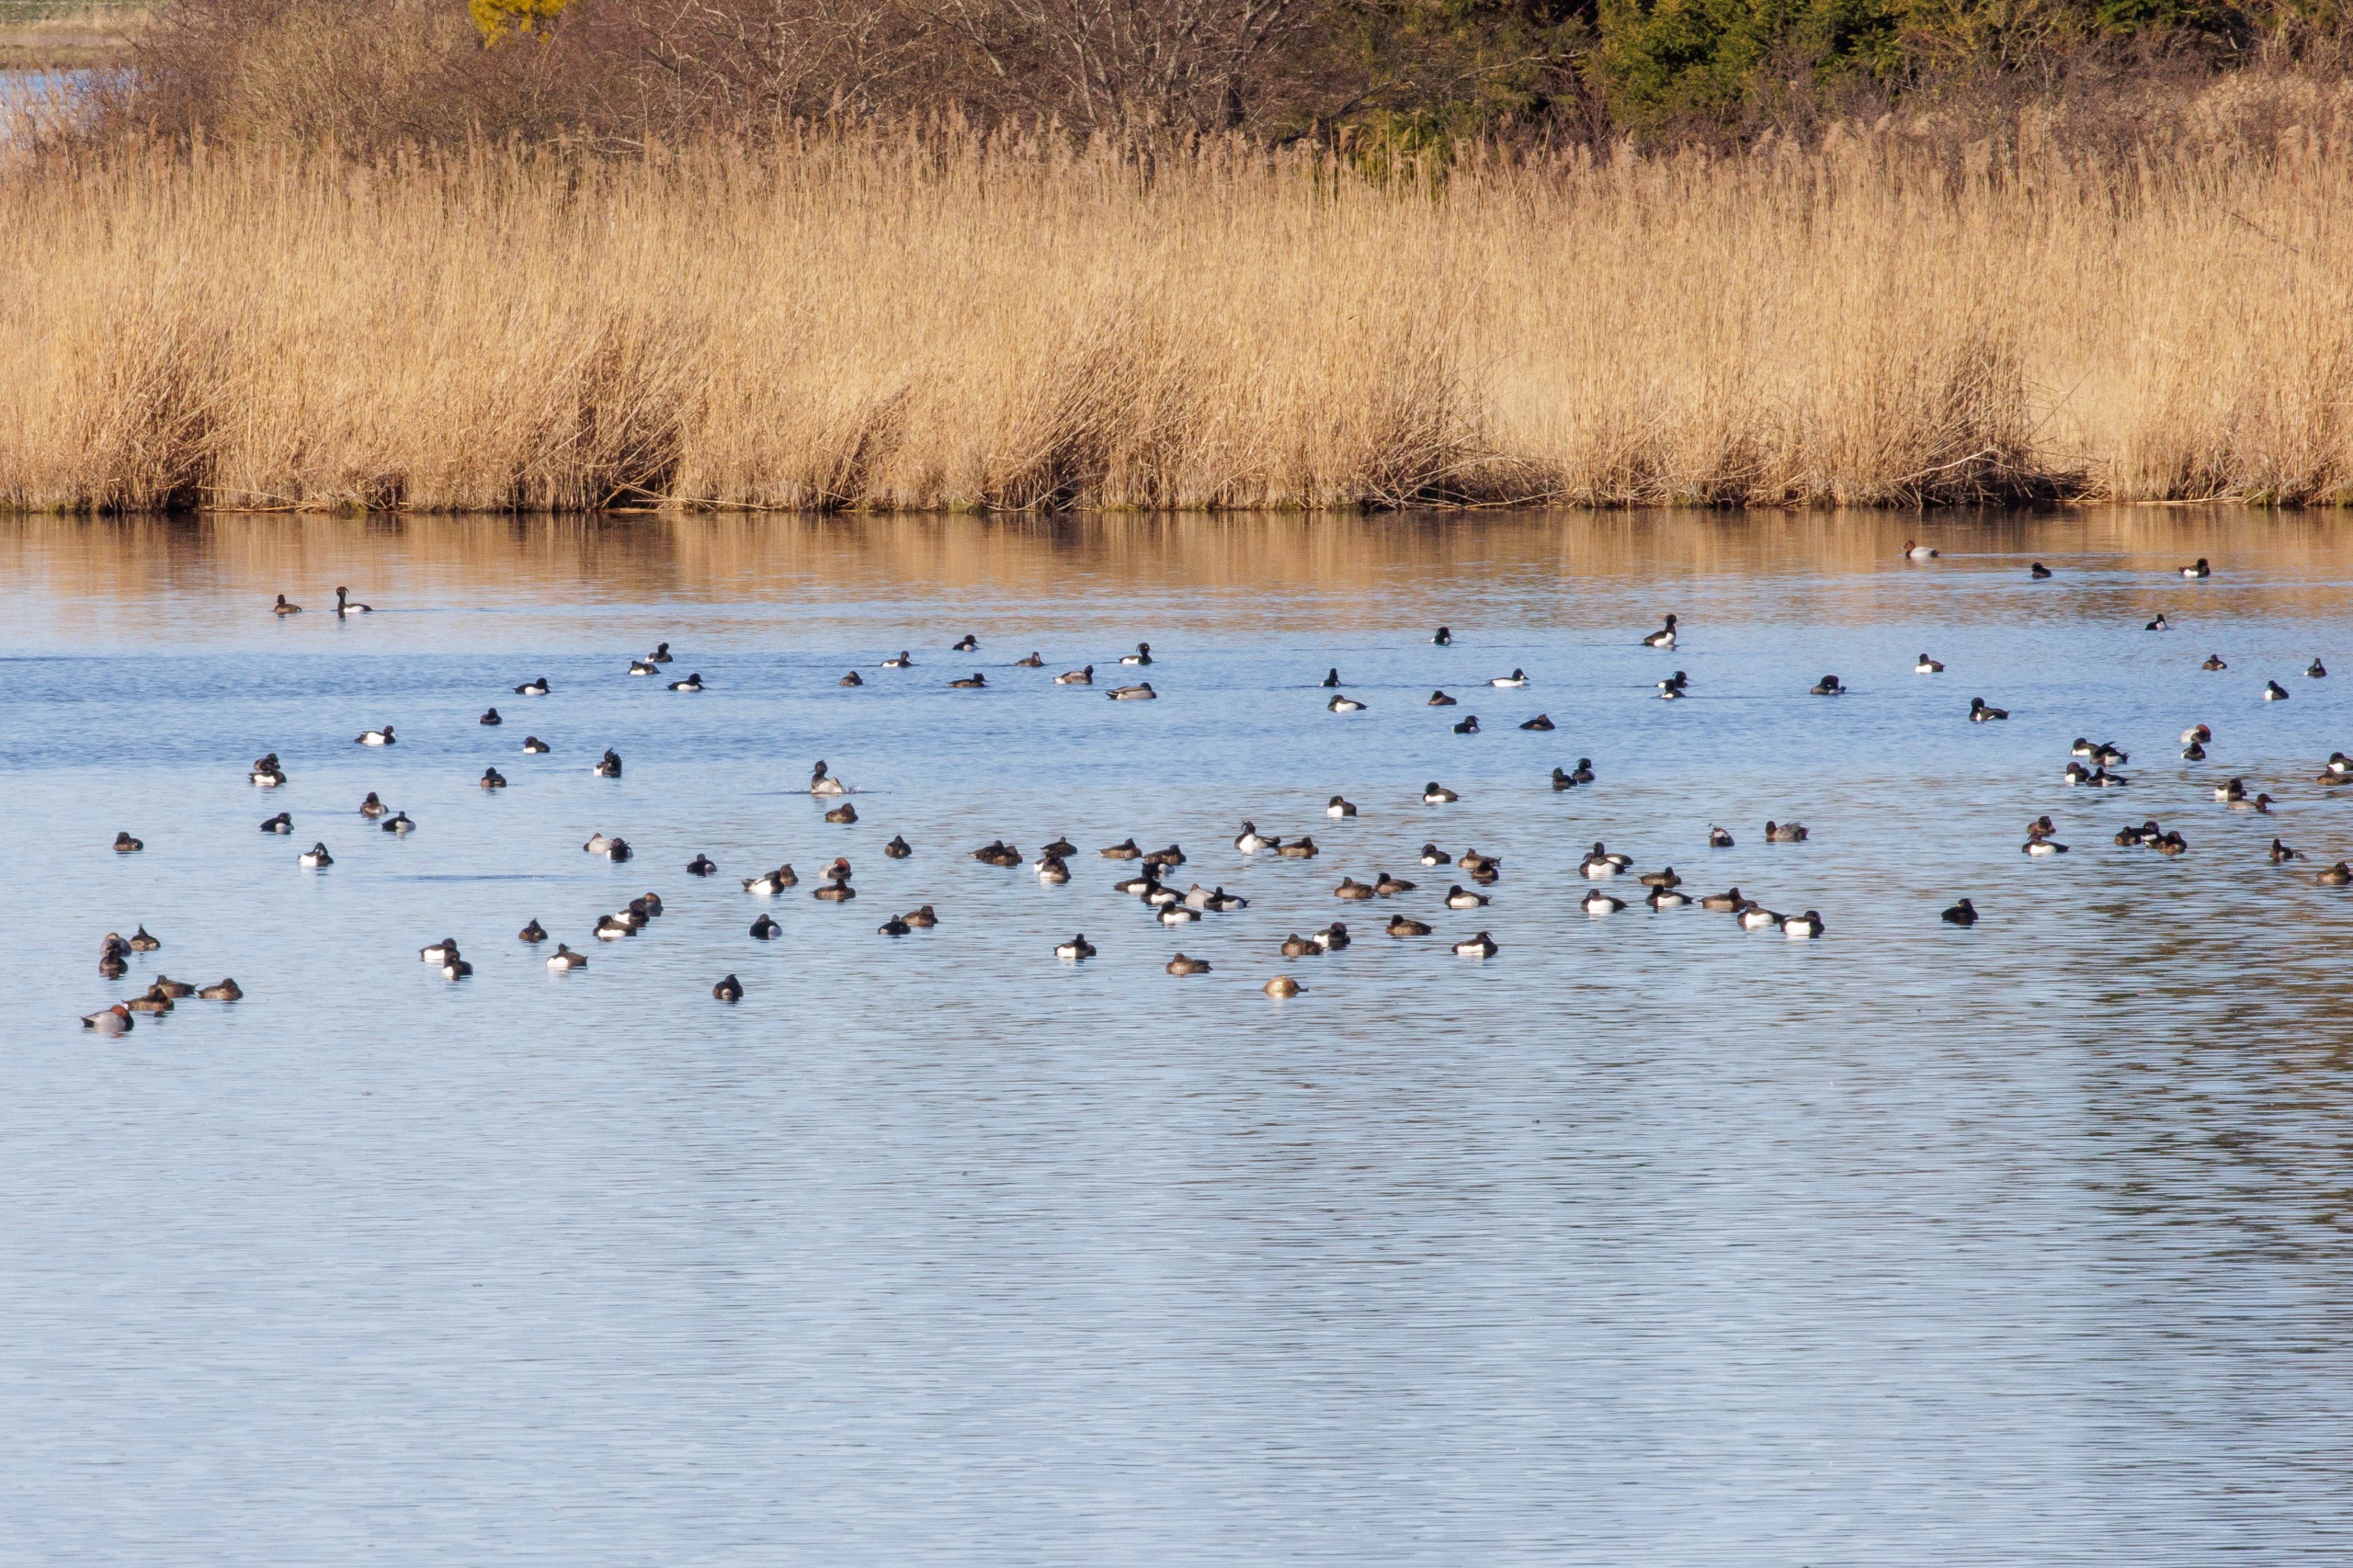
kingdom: Animalia
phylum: Chordata
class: Aves
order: Anseriformes
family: Anatidae
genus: Aythya
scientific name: Aythya fuligula
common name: Troldand
